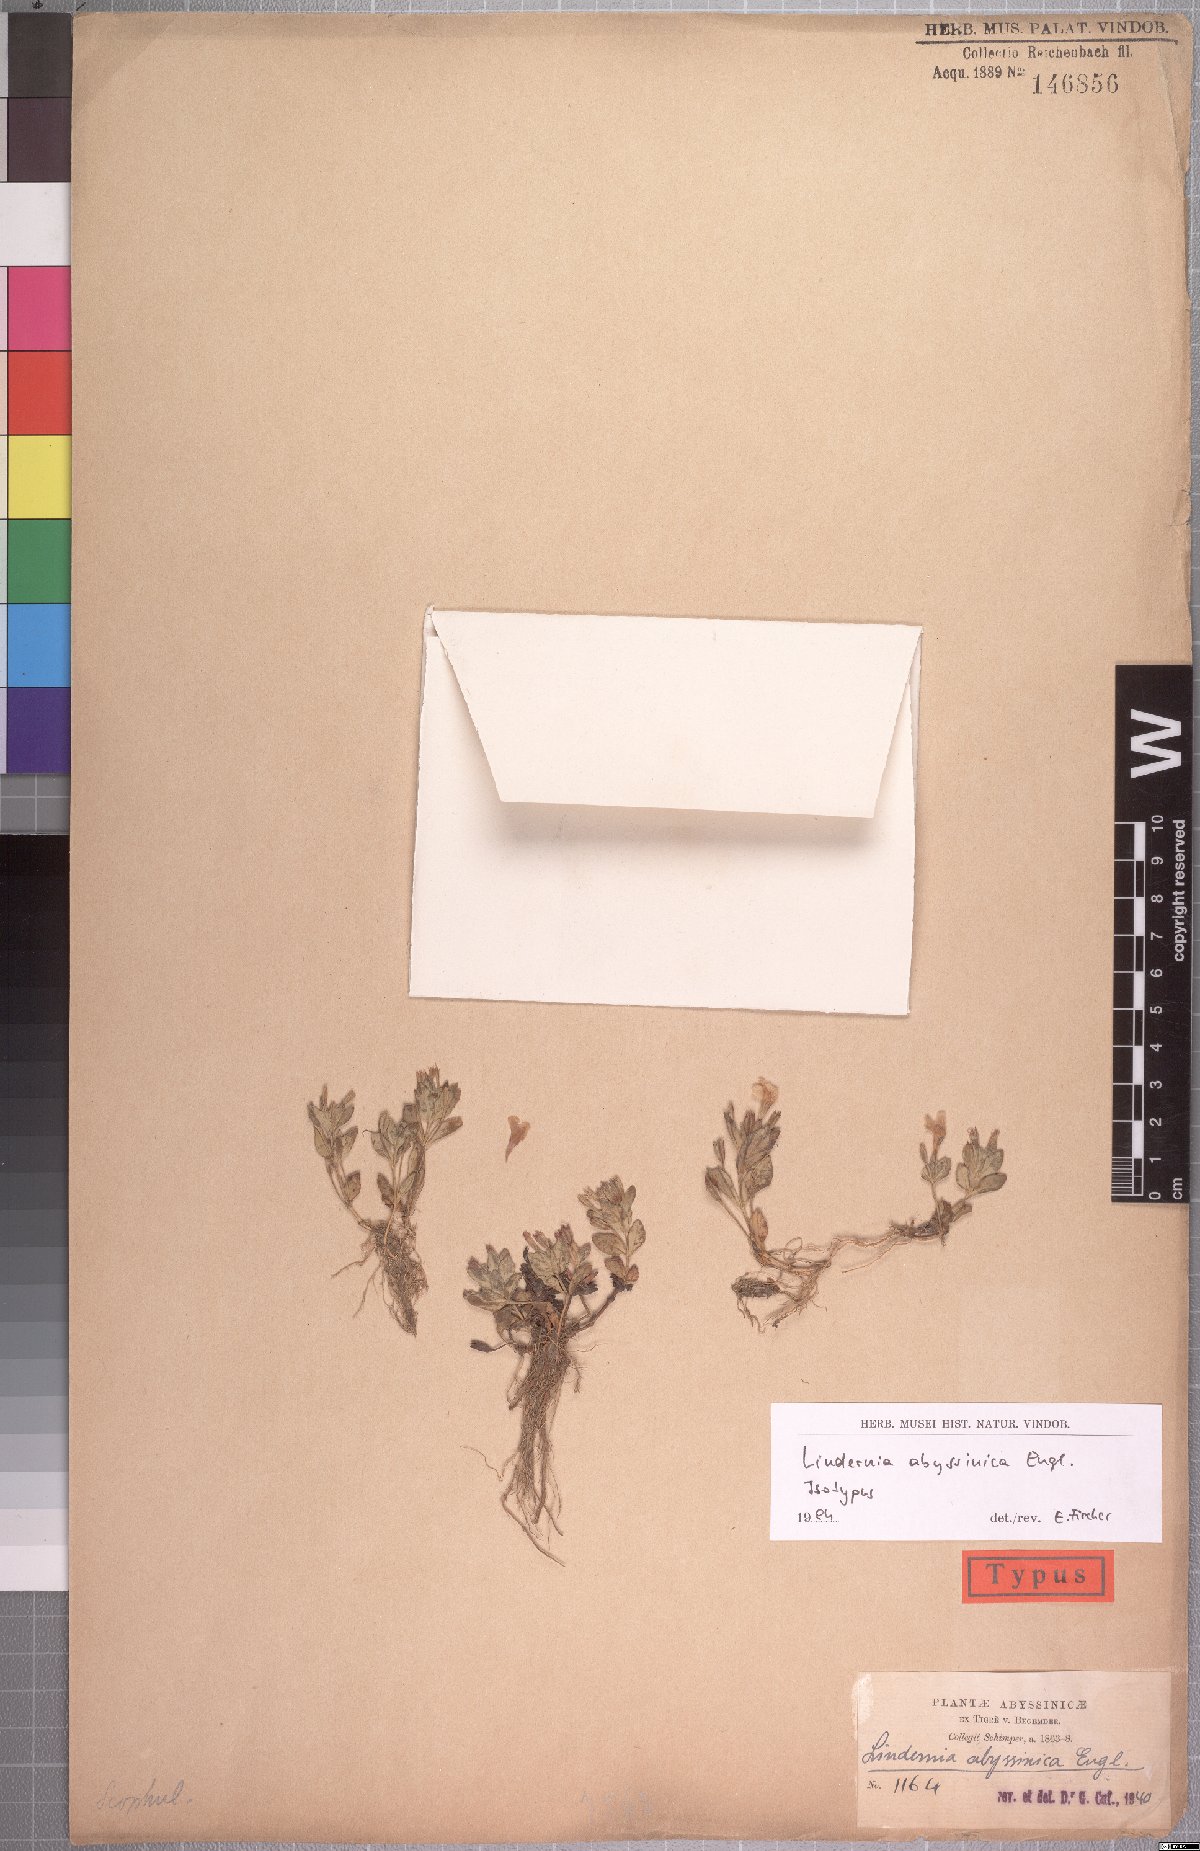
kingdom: Plantae
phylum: Tracheophyta
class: Magnoliopsida
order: Lamiales
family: Linderniaceae
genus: Craterostigma
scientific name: Craterostigma abyssinicum
